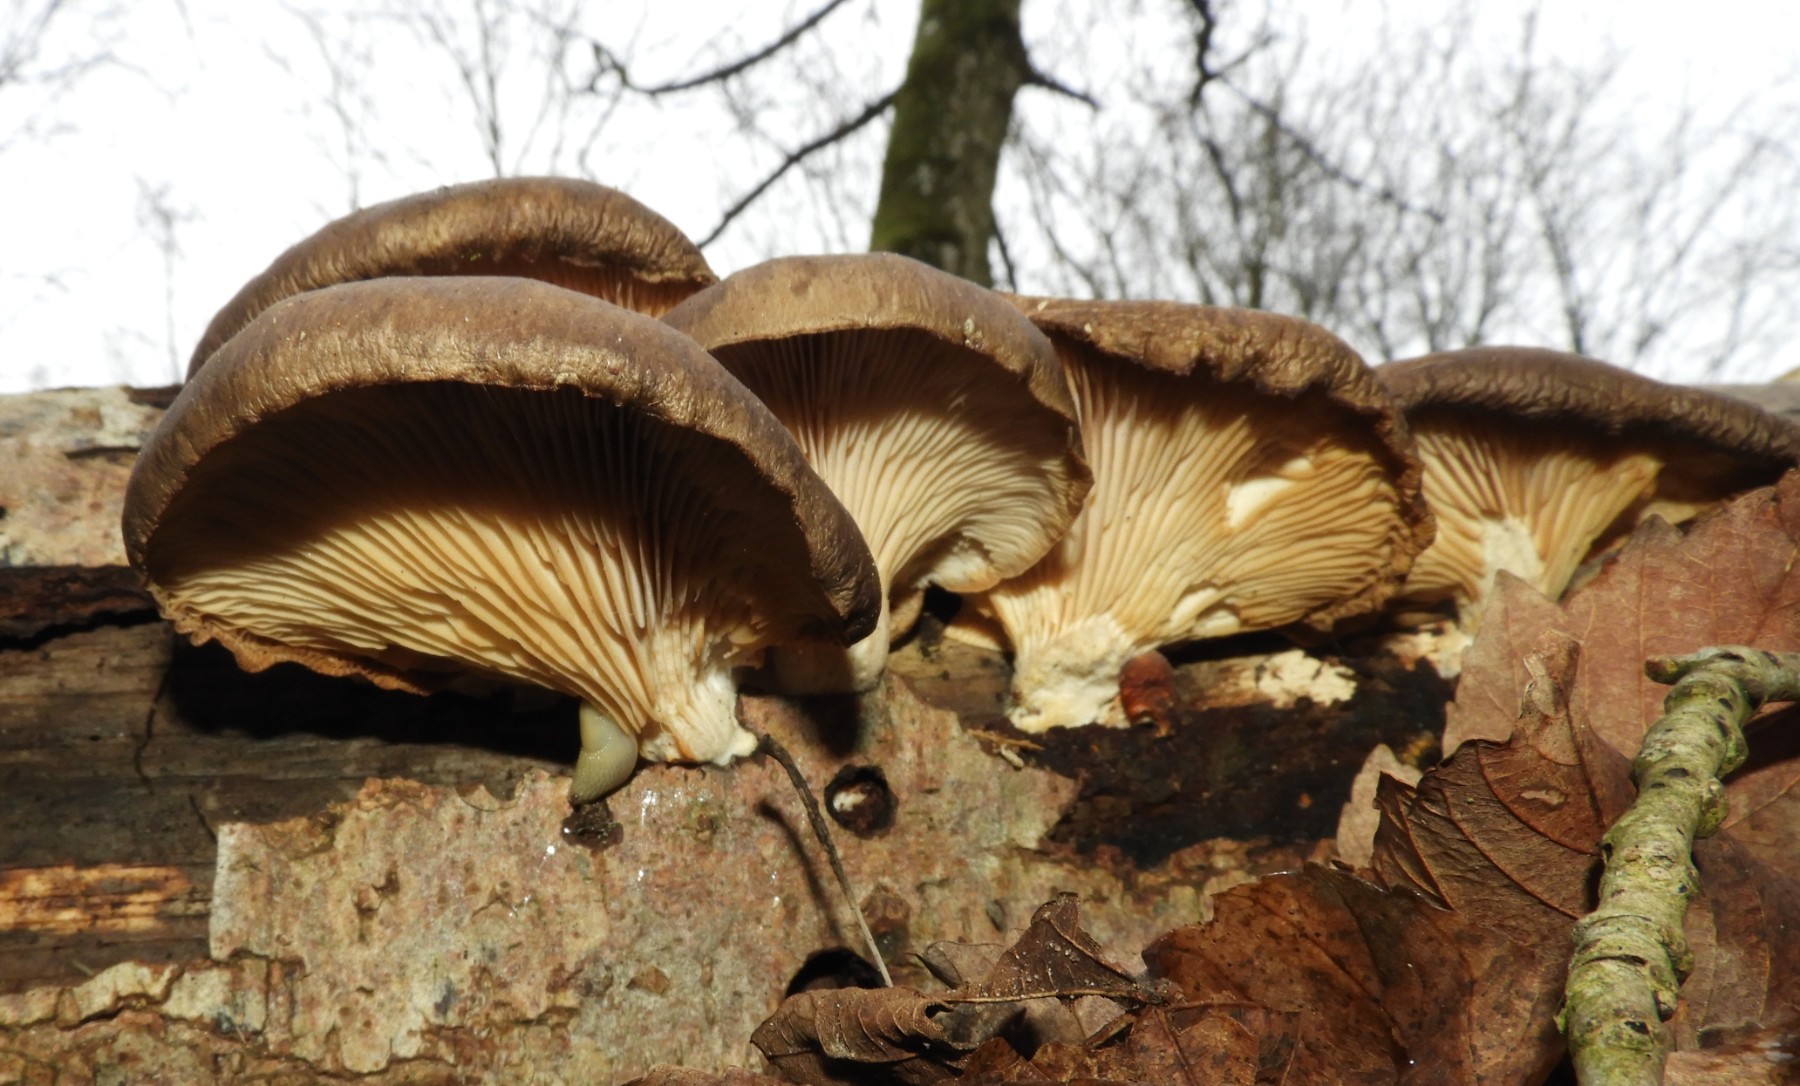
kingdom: Fungi
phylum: Basidiomycota
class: Agaricomycetes
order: Agaricales
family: Pleurotaceae
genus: Pleurotus
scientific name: Pleurotus ostreatus
